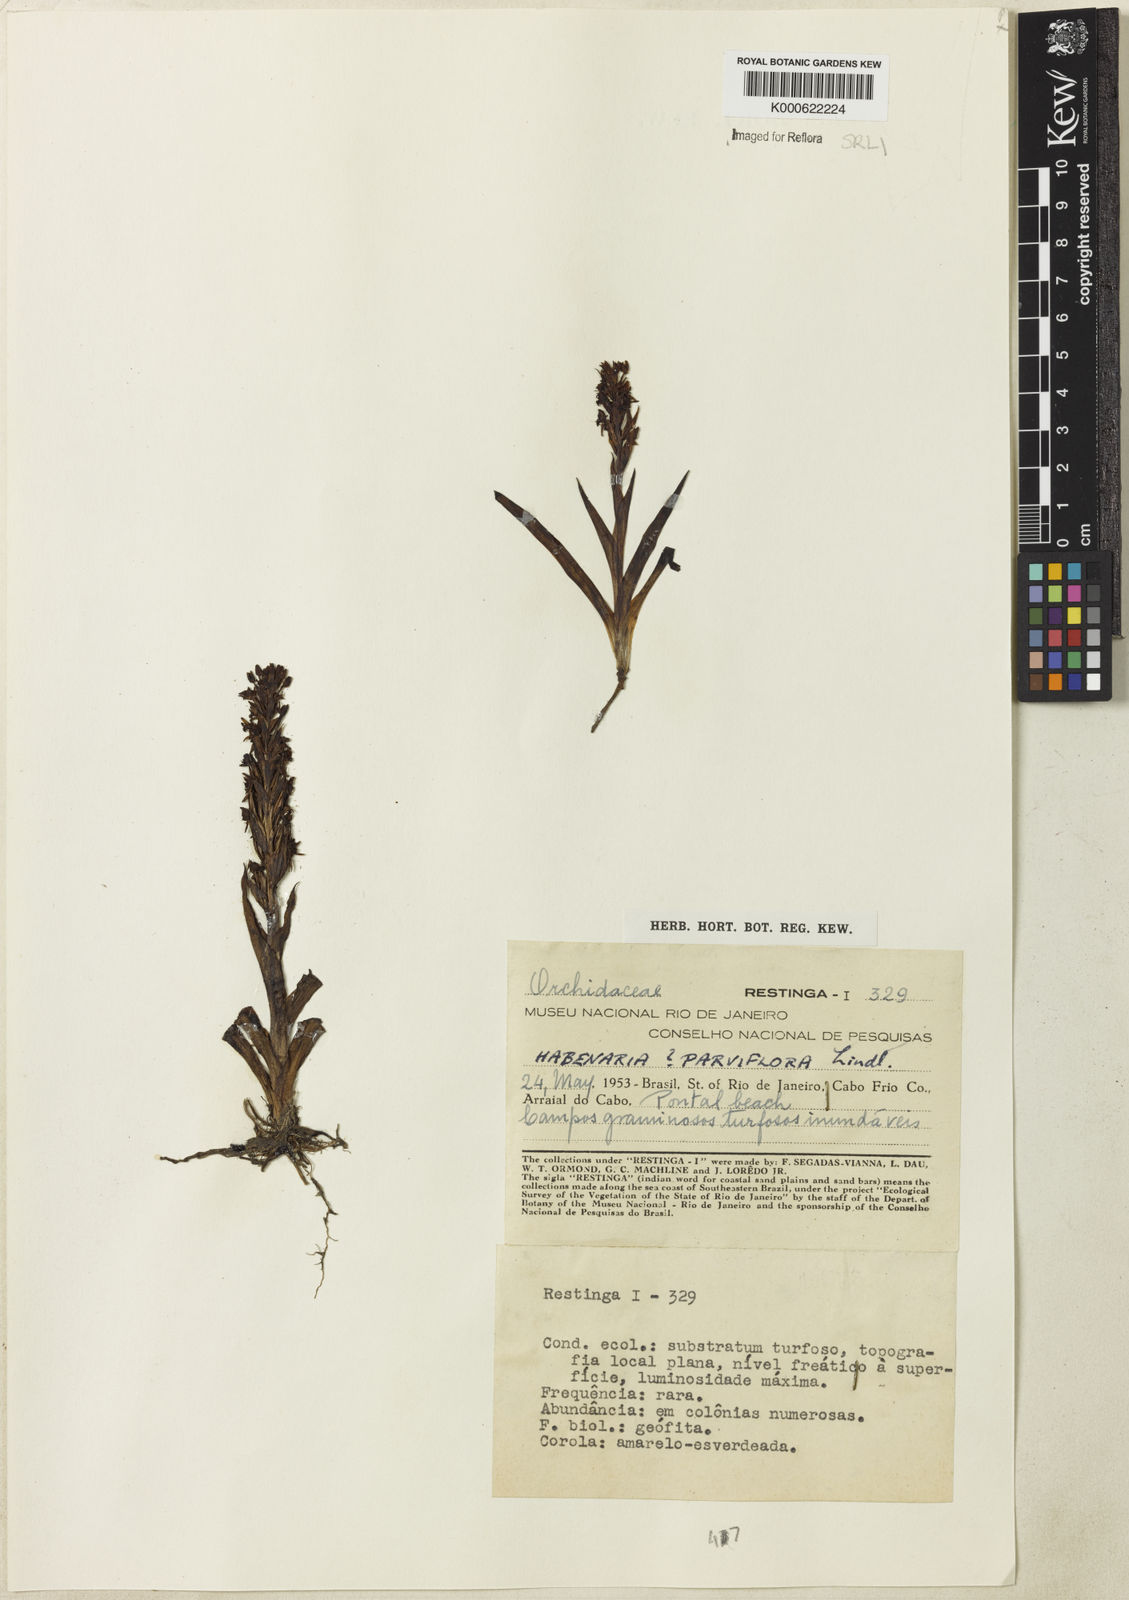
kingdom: Plantae
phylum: Tracheophyta
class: Liliopsida
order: Asparagales
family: Orchidaceae
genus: Habenaria
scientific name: Habenaria parviflora
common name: Small flowered habenaria
